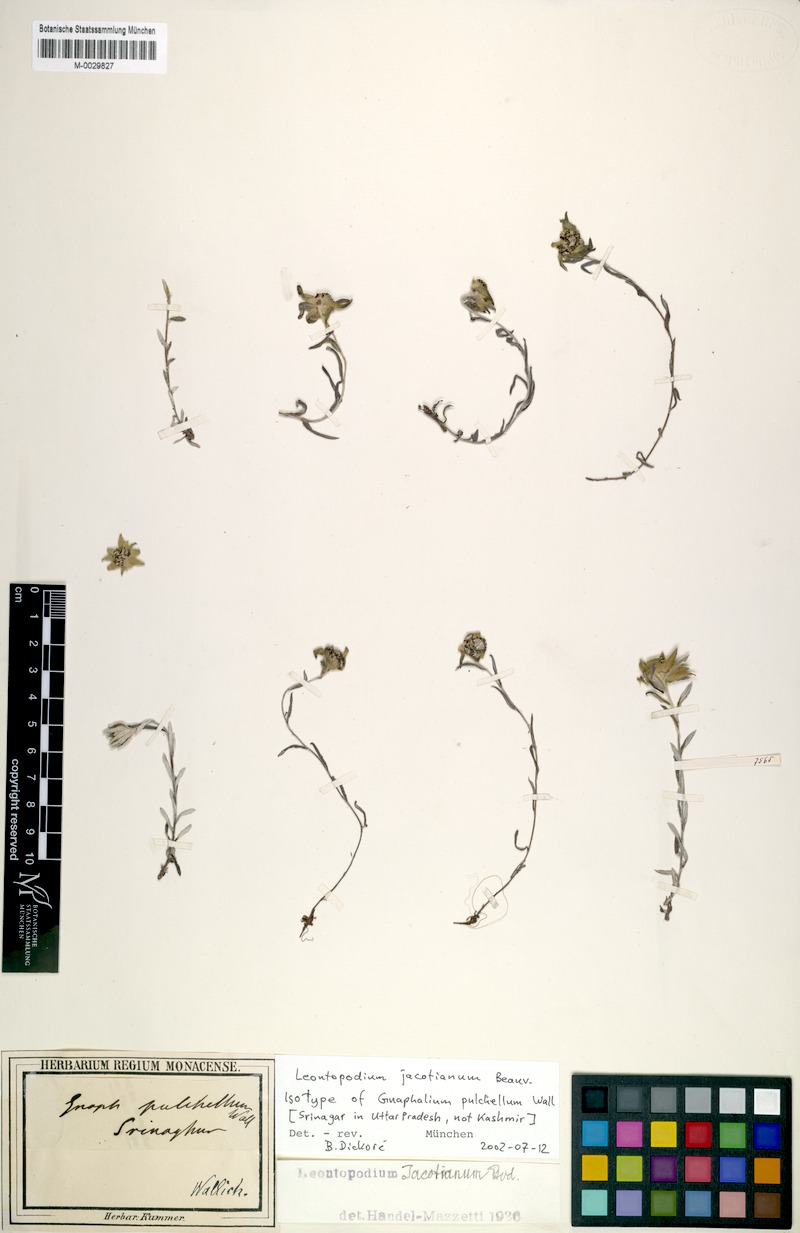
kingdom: Plantae
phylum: Tracheophyta
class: Magnoliopsida
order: Asterales
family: Asteraceae
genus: Leontopodium
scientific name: Leontopodium jacotianum
